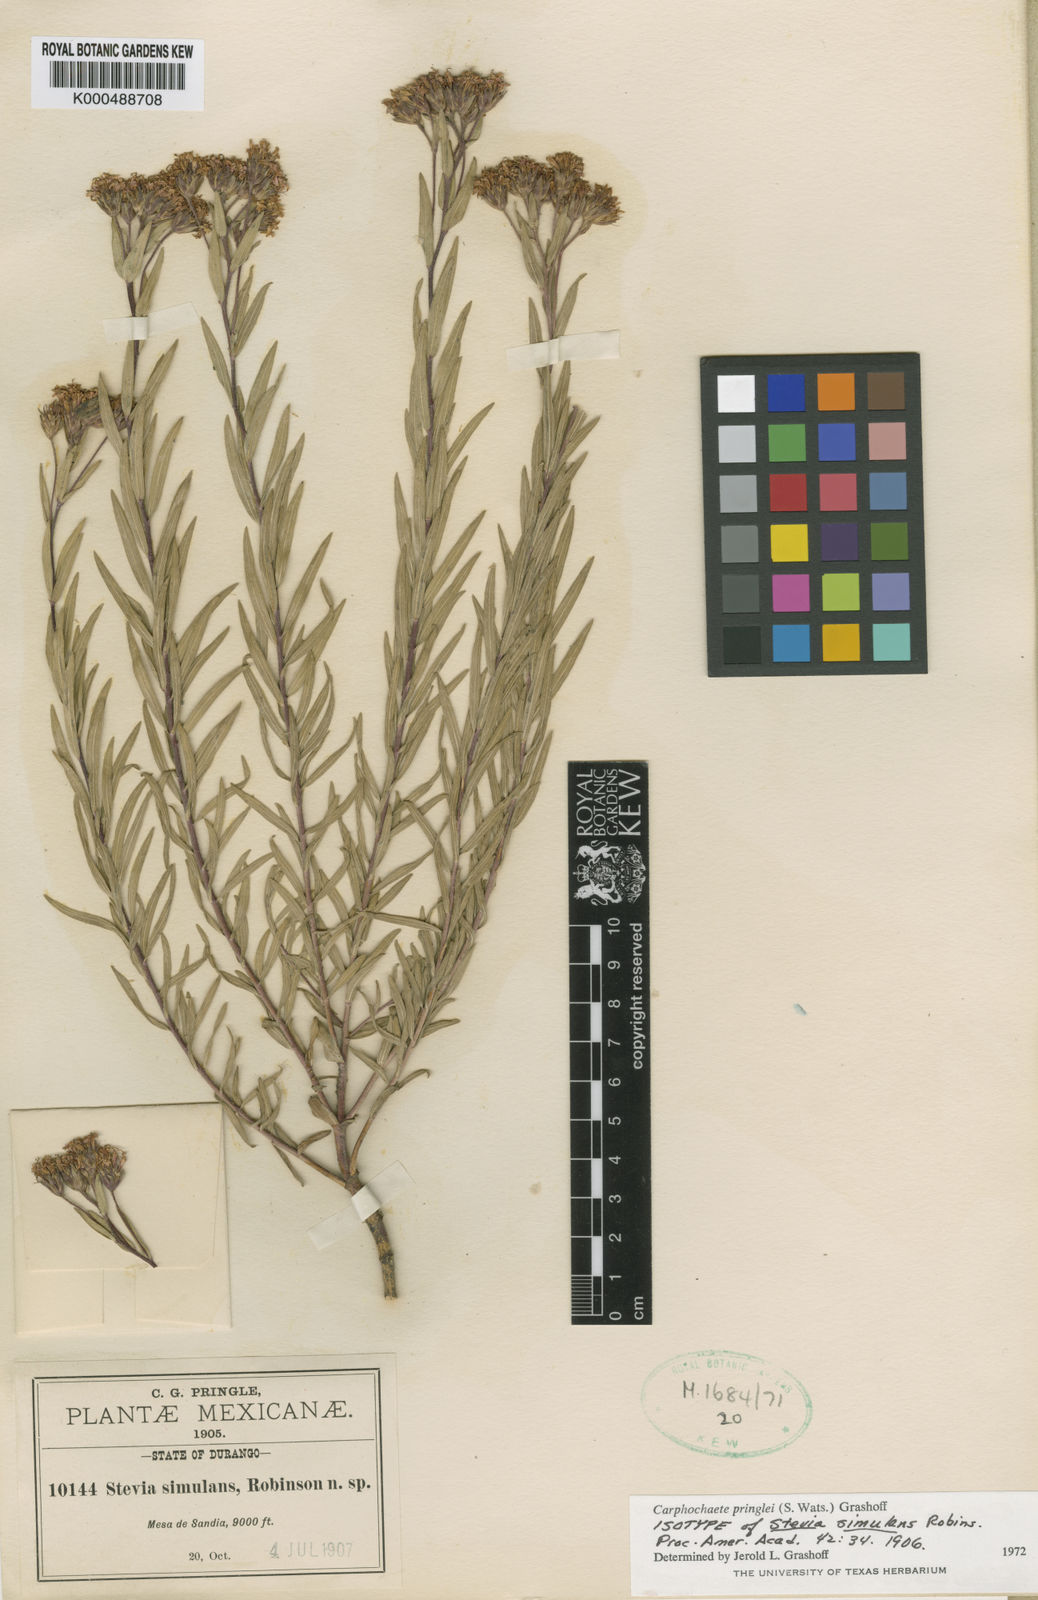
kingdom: Plantae
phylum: Tracheophyta
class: Magnoliopsida
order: Asterales
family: Asteraceae
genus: Carphochaete
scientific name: Carphochaete pringlei
